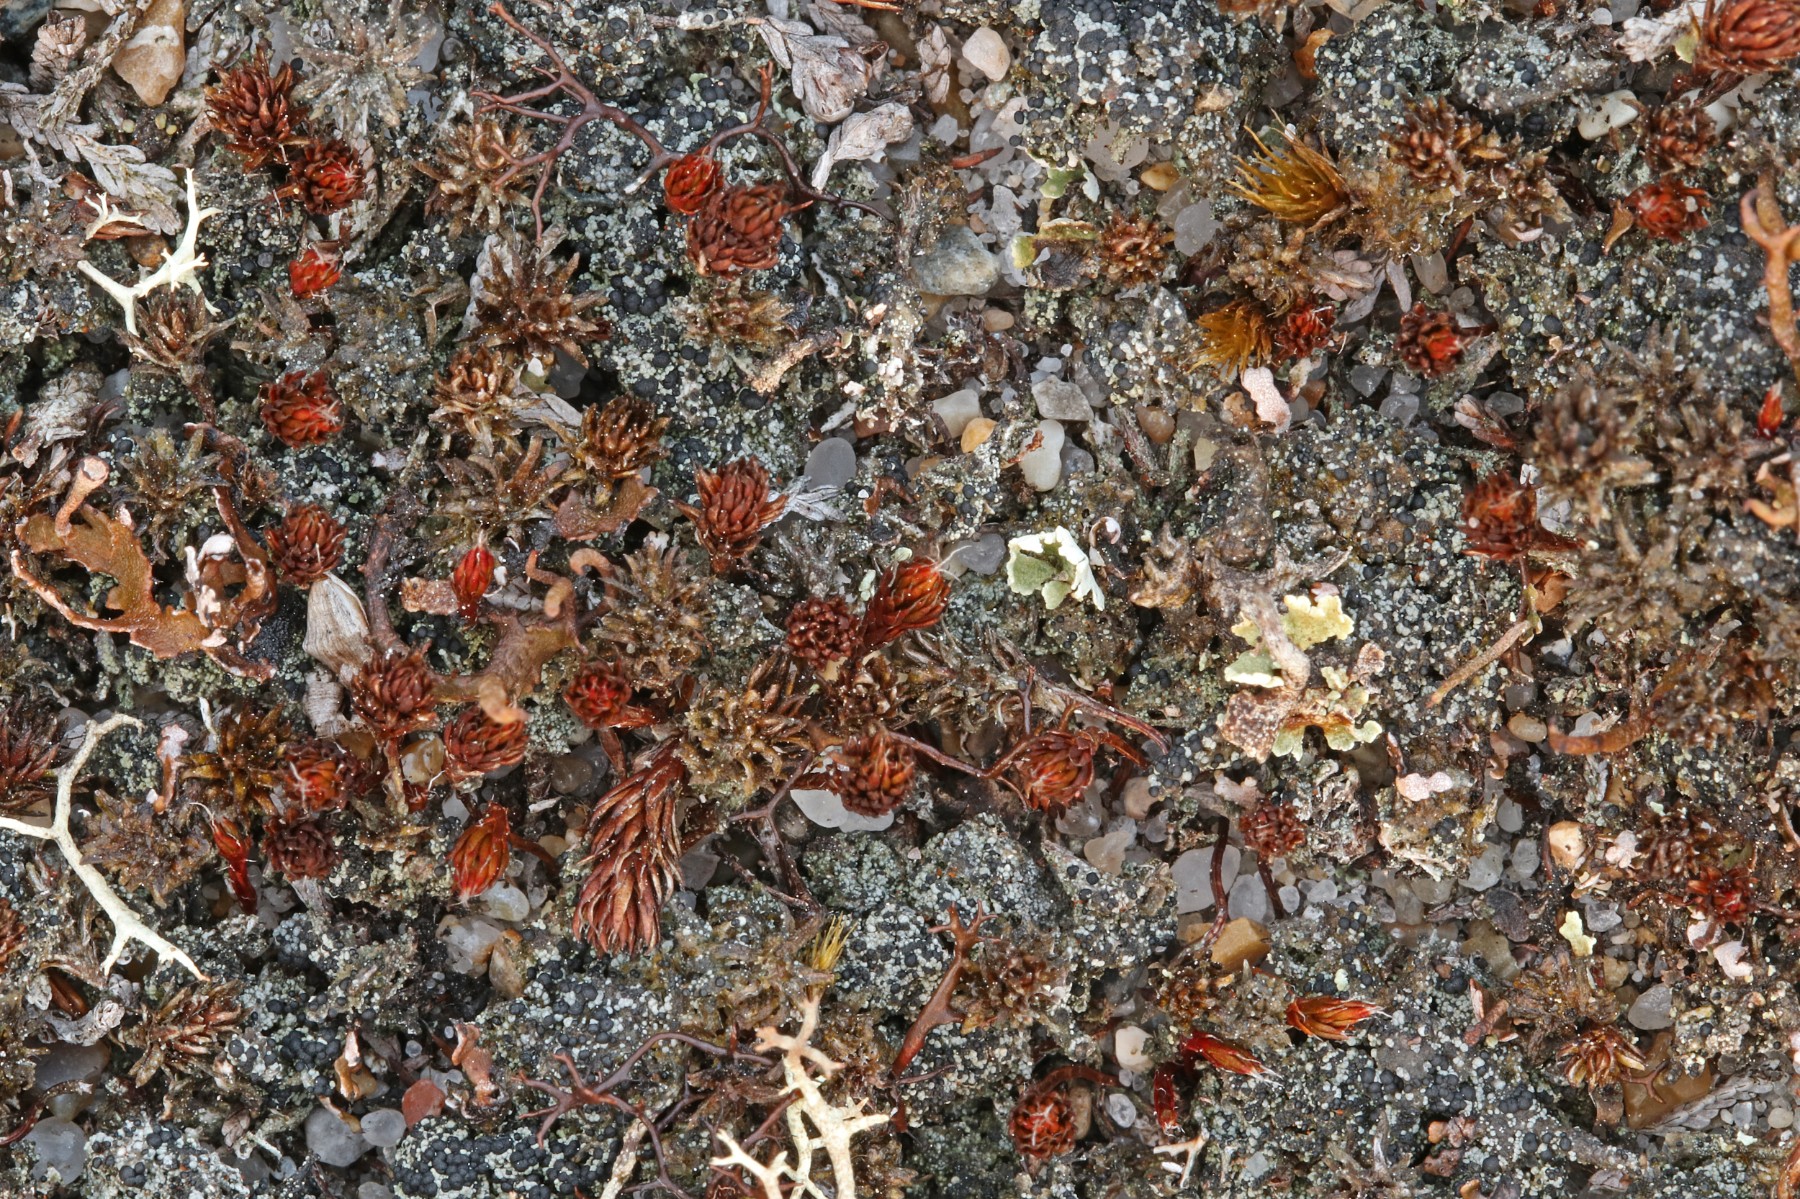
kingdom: Fungi
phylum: Ascomycota
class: Lecanoromycetes
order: Lecanorales
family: Byssolomataceae
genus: Micarea
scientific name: Micarea lignaria
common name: tørve-knaplav
